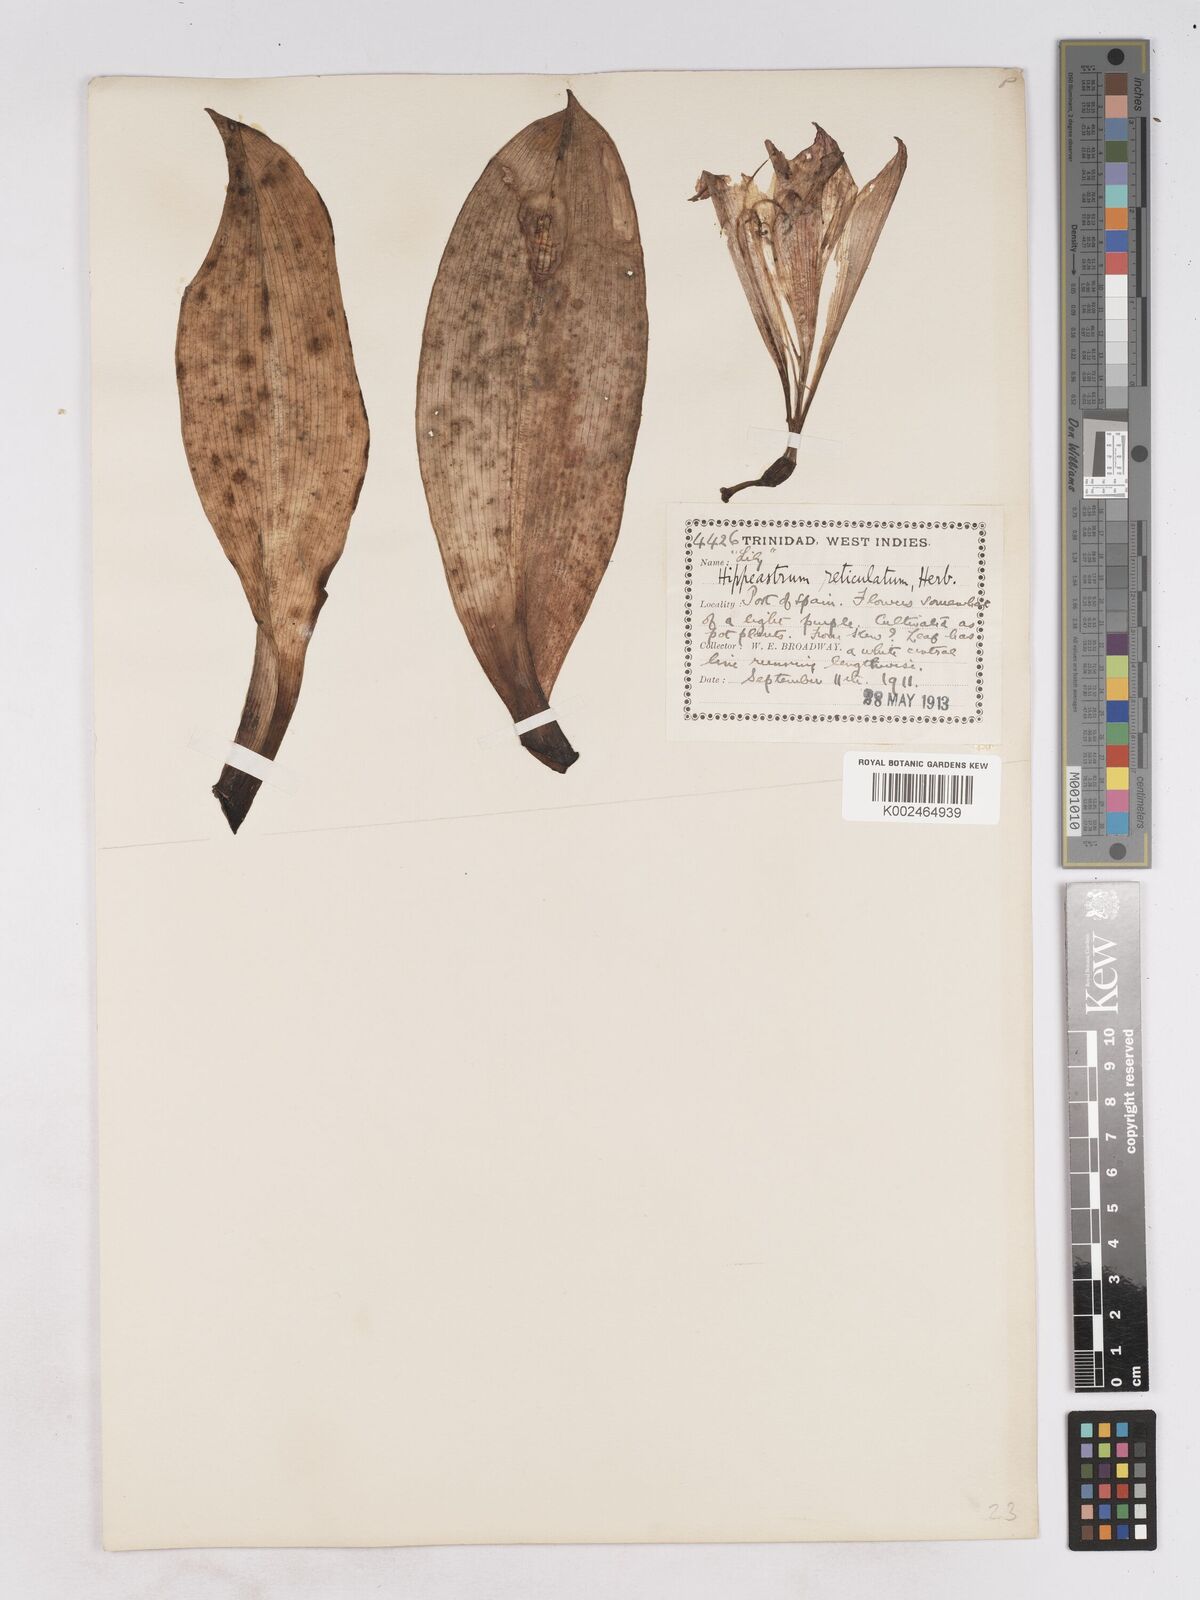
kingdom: Plantae
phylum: Tracheophyta
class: Liliopsida
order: Asparagales
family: Amaryllidaceae
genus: Hippeastrum
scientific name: Hippeastrum reticulatum
